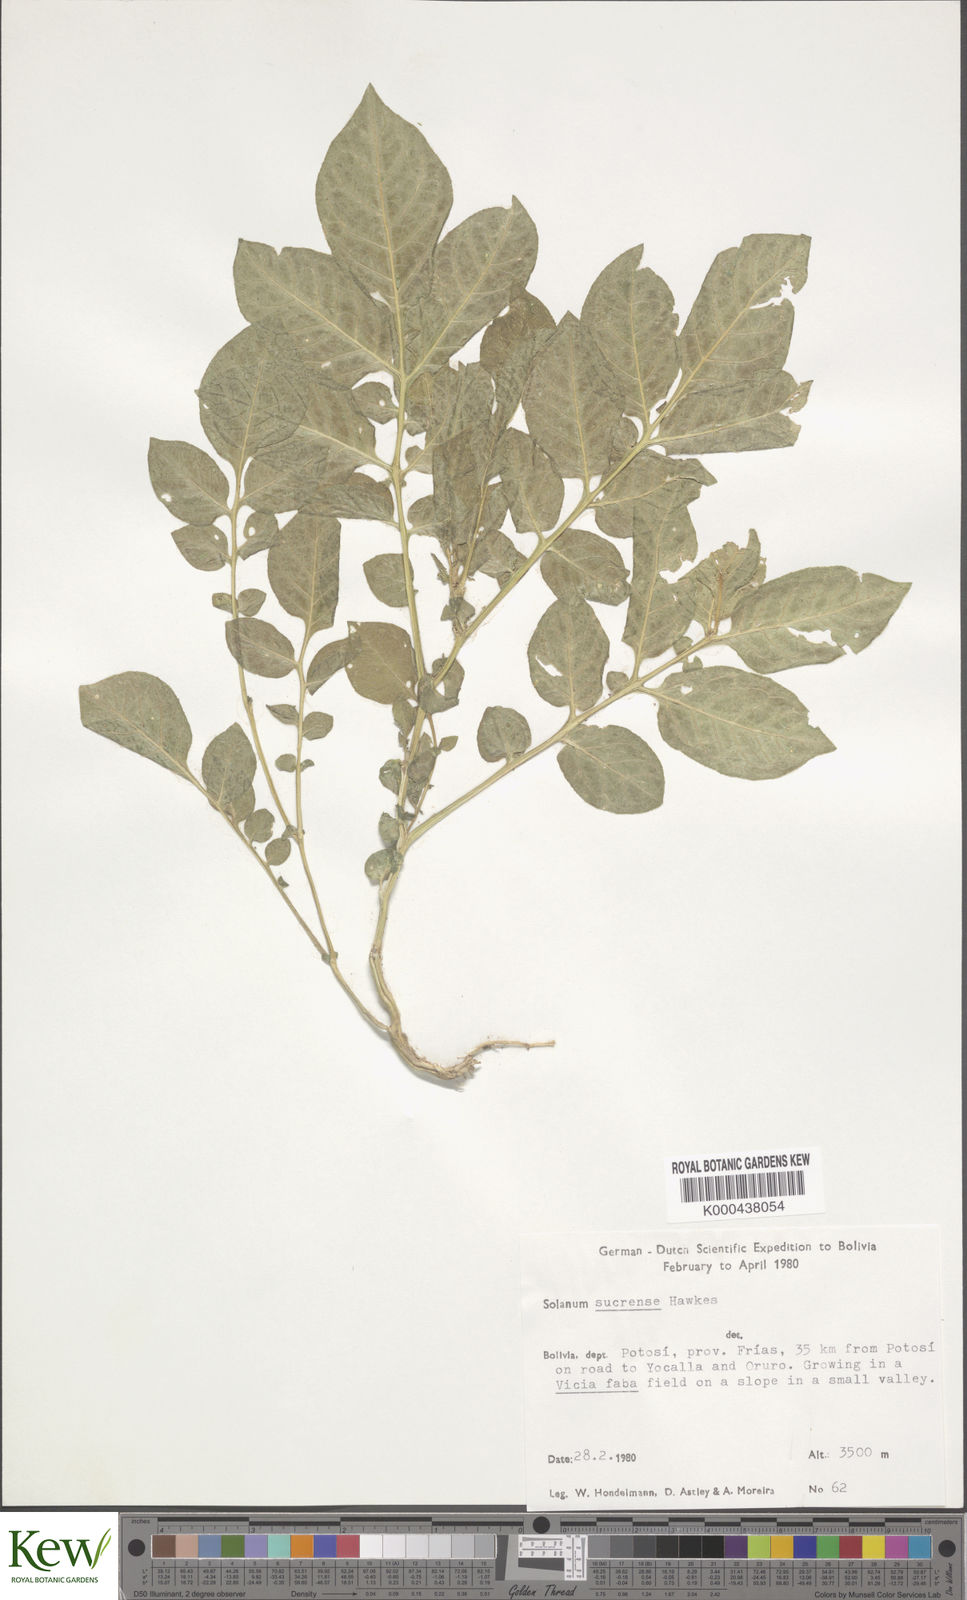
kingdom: Plantae
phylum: Tracheophyta
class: Magnoliopsida
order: Solanales
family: Solanaceae
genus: Solanum
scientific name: Solanum brevicaule
